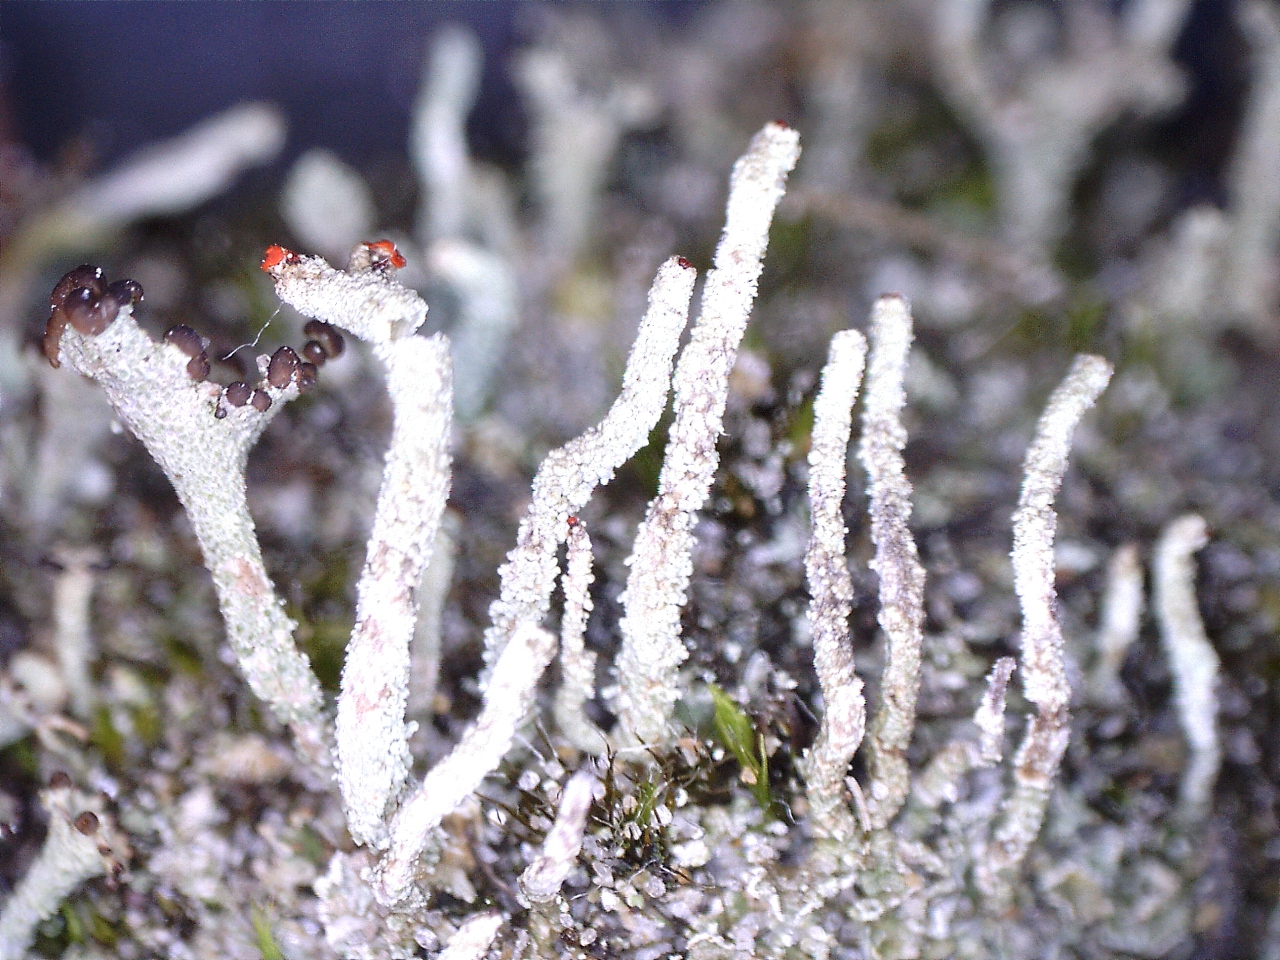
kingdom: Fungi
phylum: Ascomycota
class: Lecanoromycetes
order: Lecanorales
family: Cladoniaceae
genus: Cladonia
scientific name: Cladonia floerkeana
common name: lakrød bægerlav
